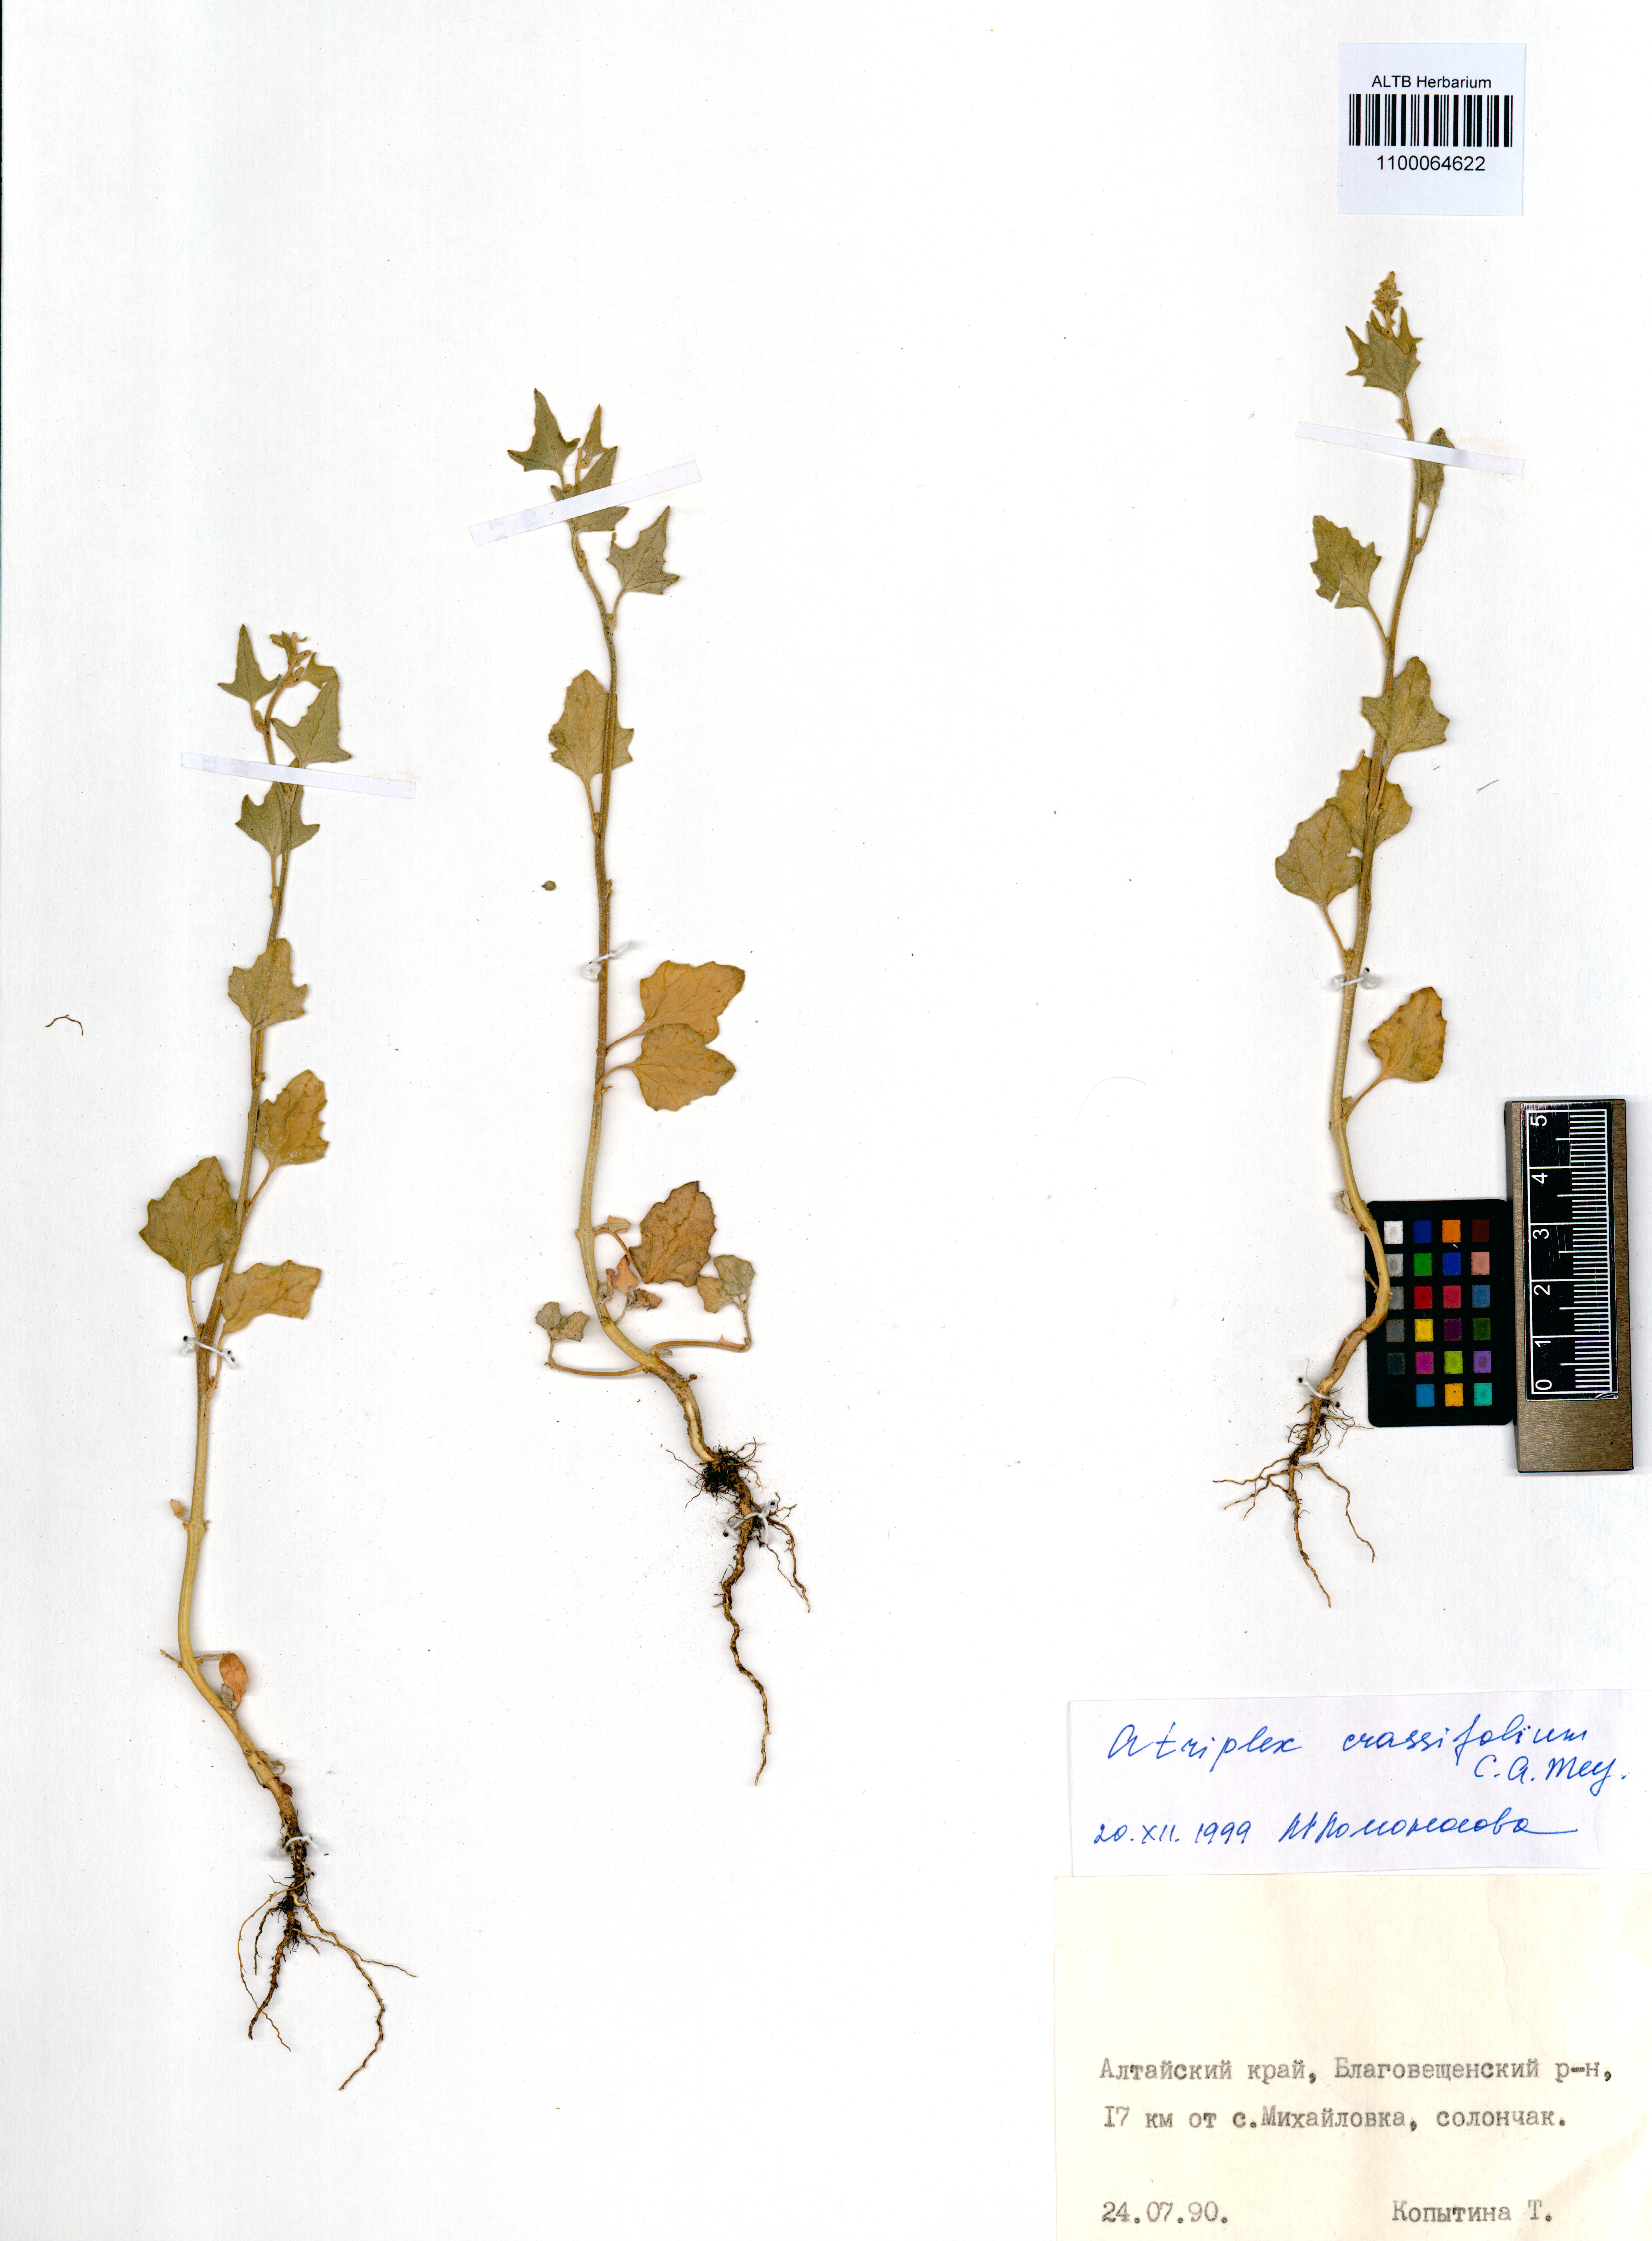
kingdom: Plantae
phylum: Tracheophyta
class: Magnoliopsida
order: Caryophyllales
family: Amaranthaceae
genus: Atriplex
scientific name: Atriplex crassifolia
